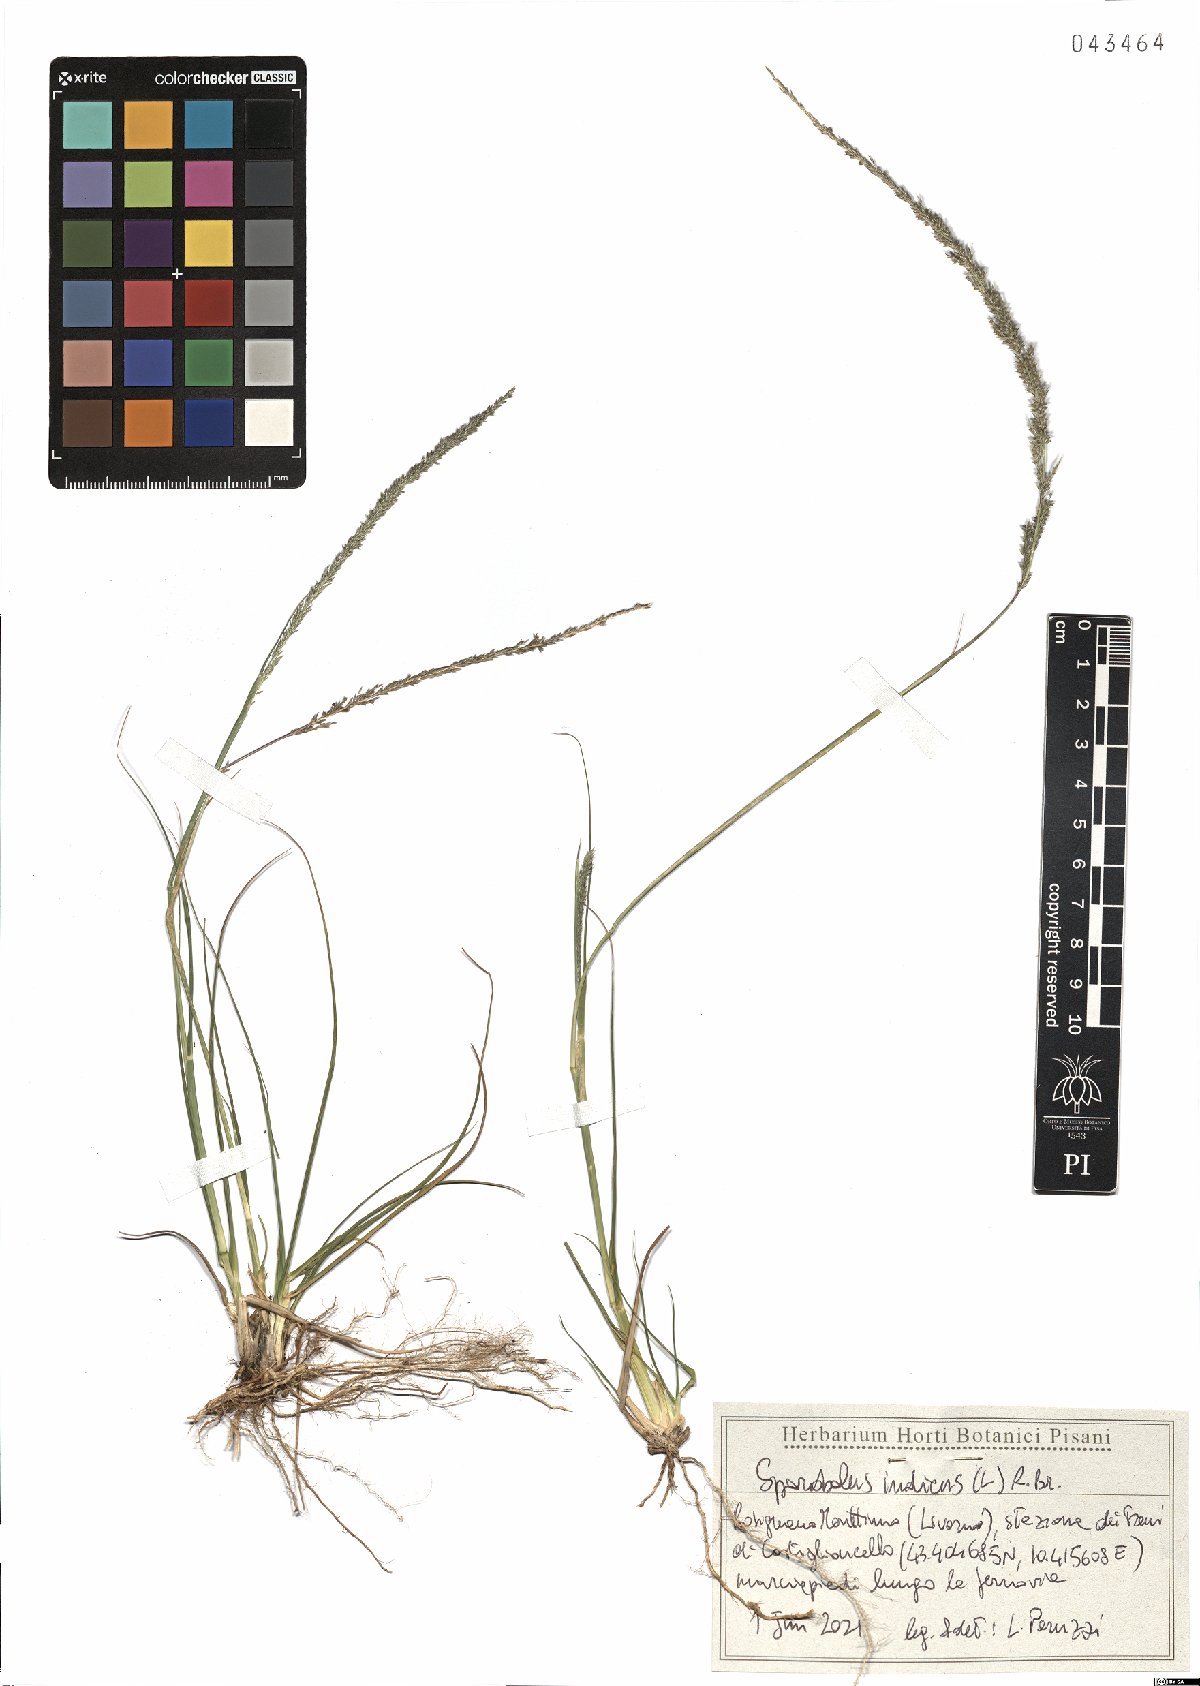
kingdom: Plantae
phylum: Tracheophyta
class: Liliopsida
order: Poales
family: Poaceae
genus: Sporobolus
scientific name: Sporobolus indicus
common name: Smut grass
